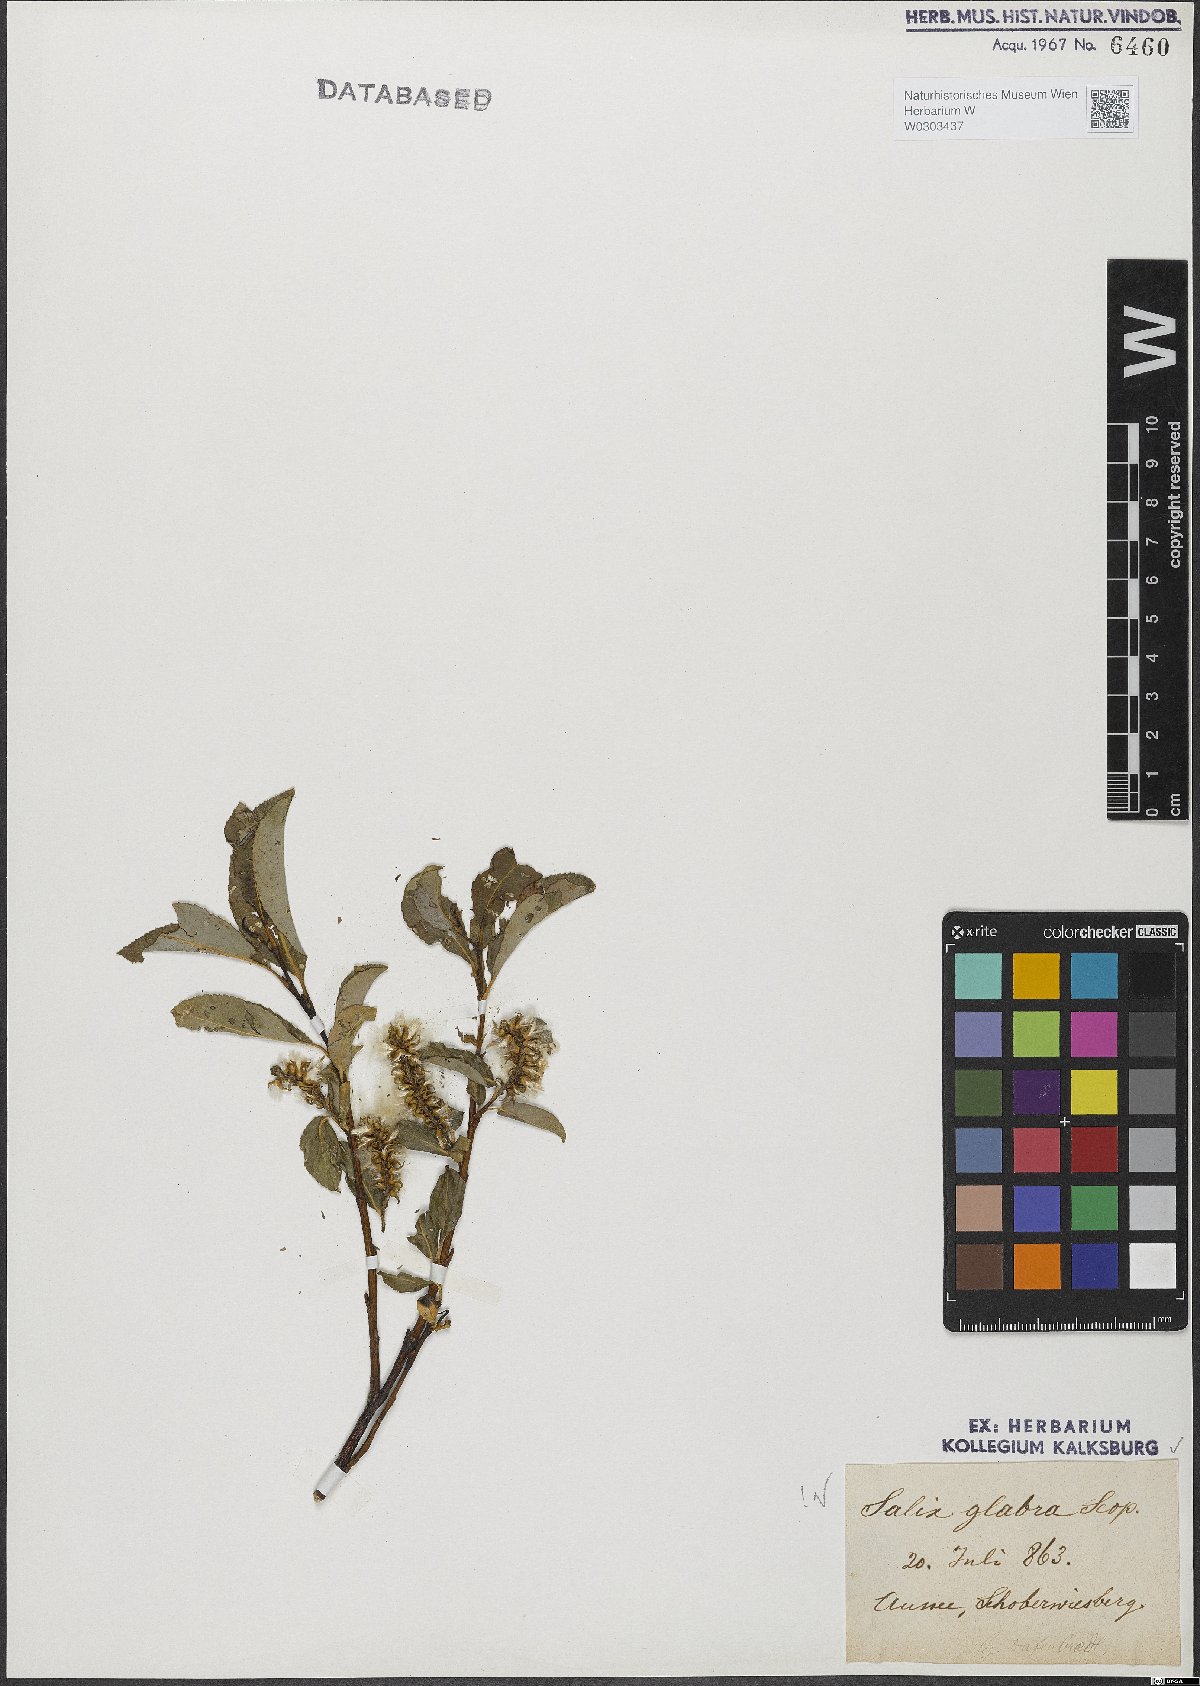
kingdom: Plantae
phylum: Tracheophyta
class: Magnoliopsida
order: Malpighiales
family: Salicaceae
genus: Salix
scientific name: Salix glabra
